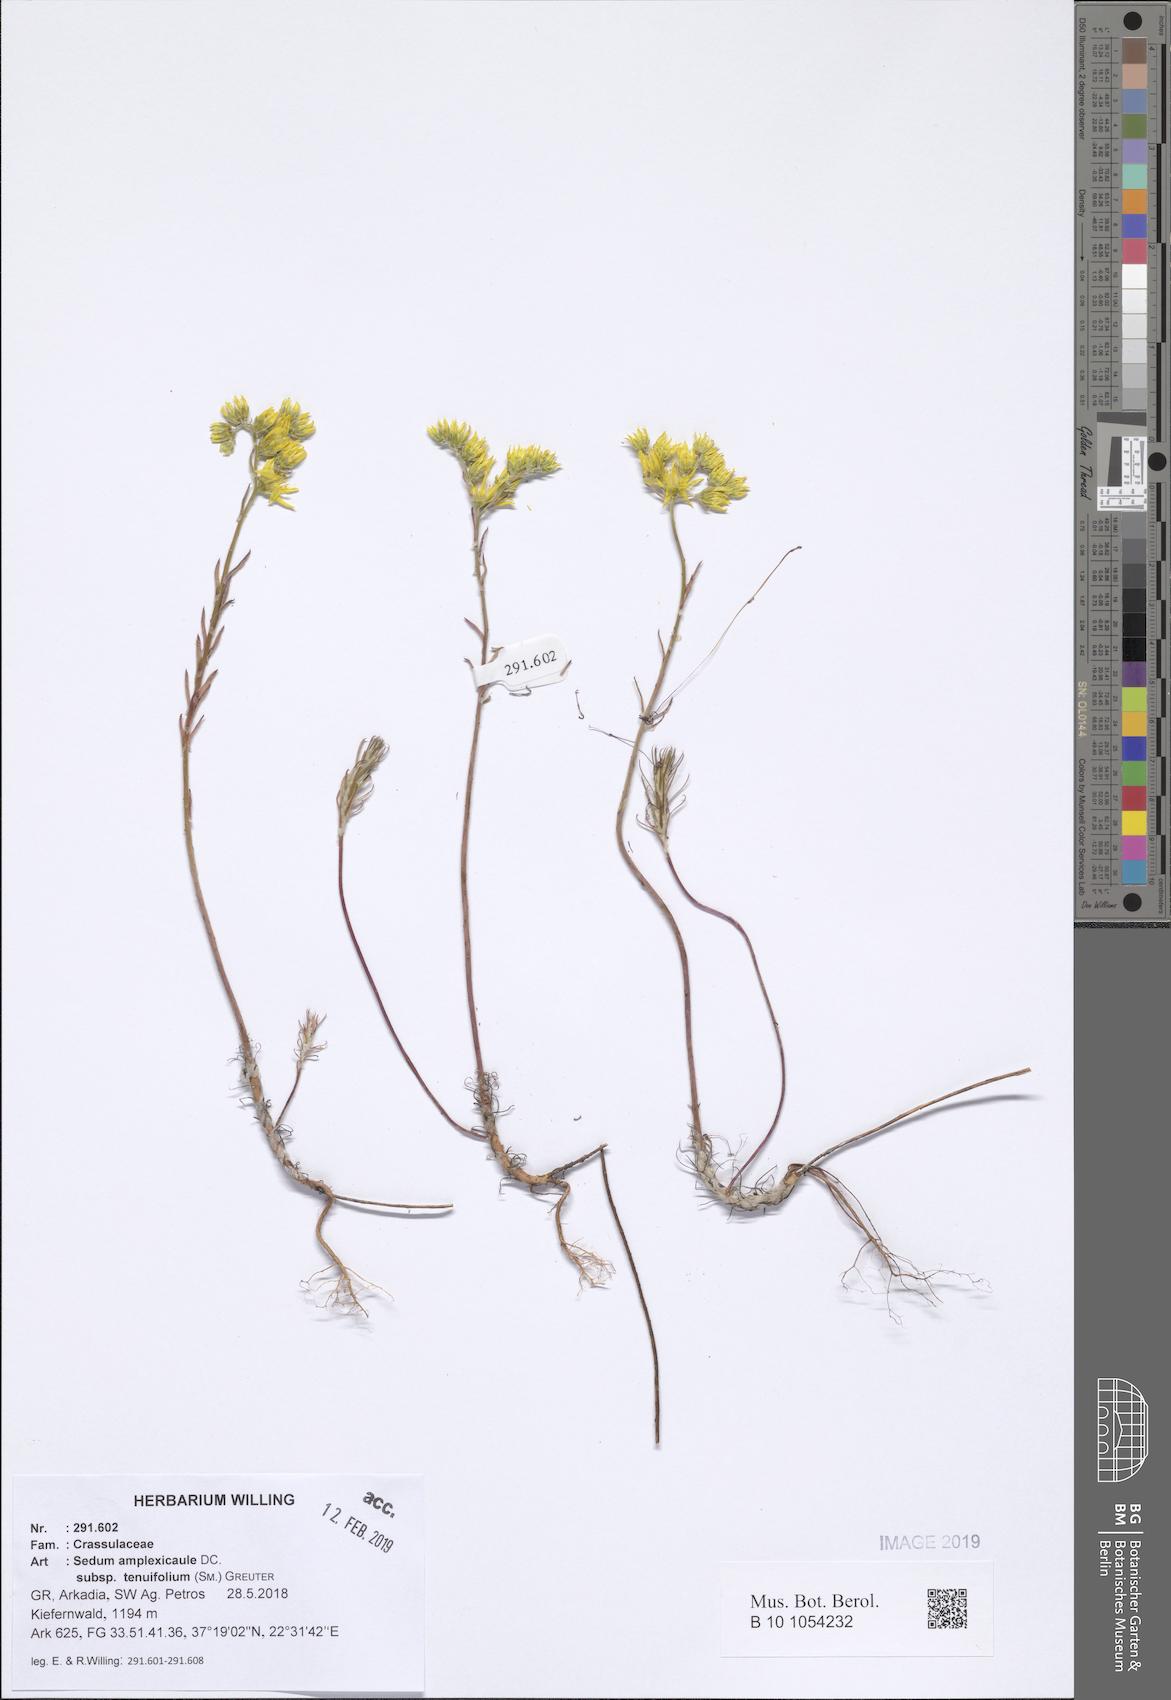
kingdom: Plantae
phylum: Tracheophyta
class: Magnoliopsida
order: Saxifragales
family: Crassulaceae
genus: Petrosedum
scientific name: Petrosedum tenuifolium
